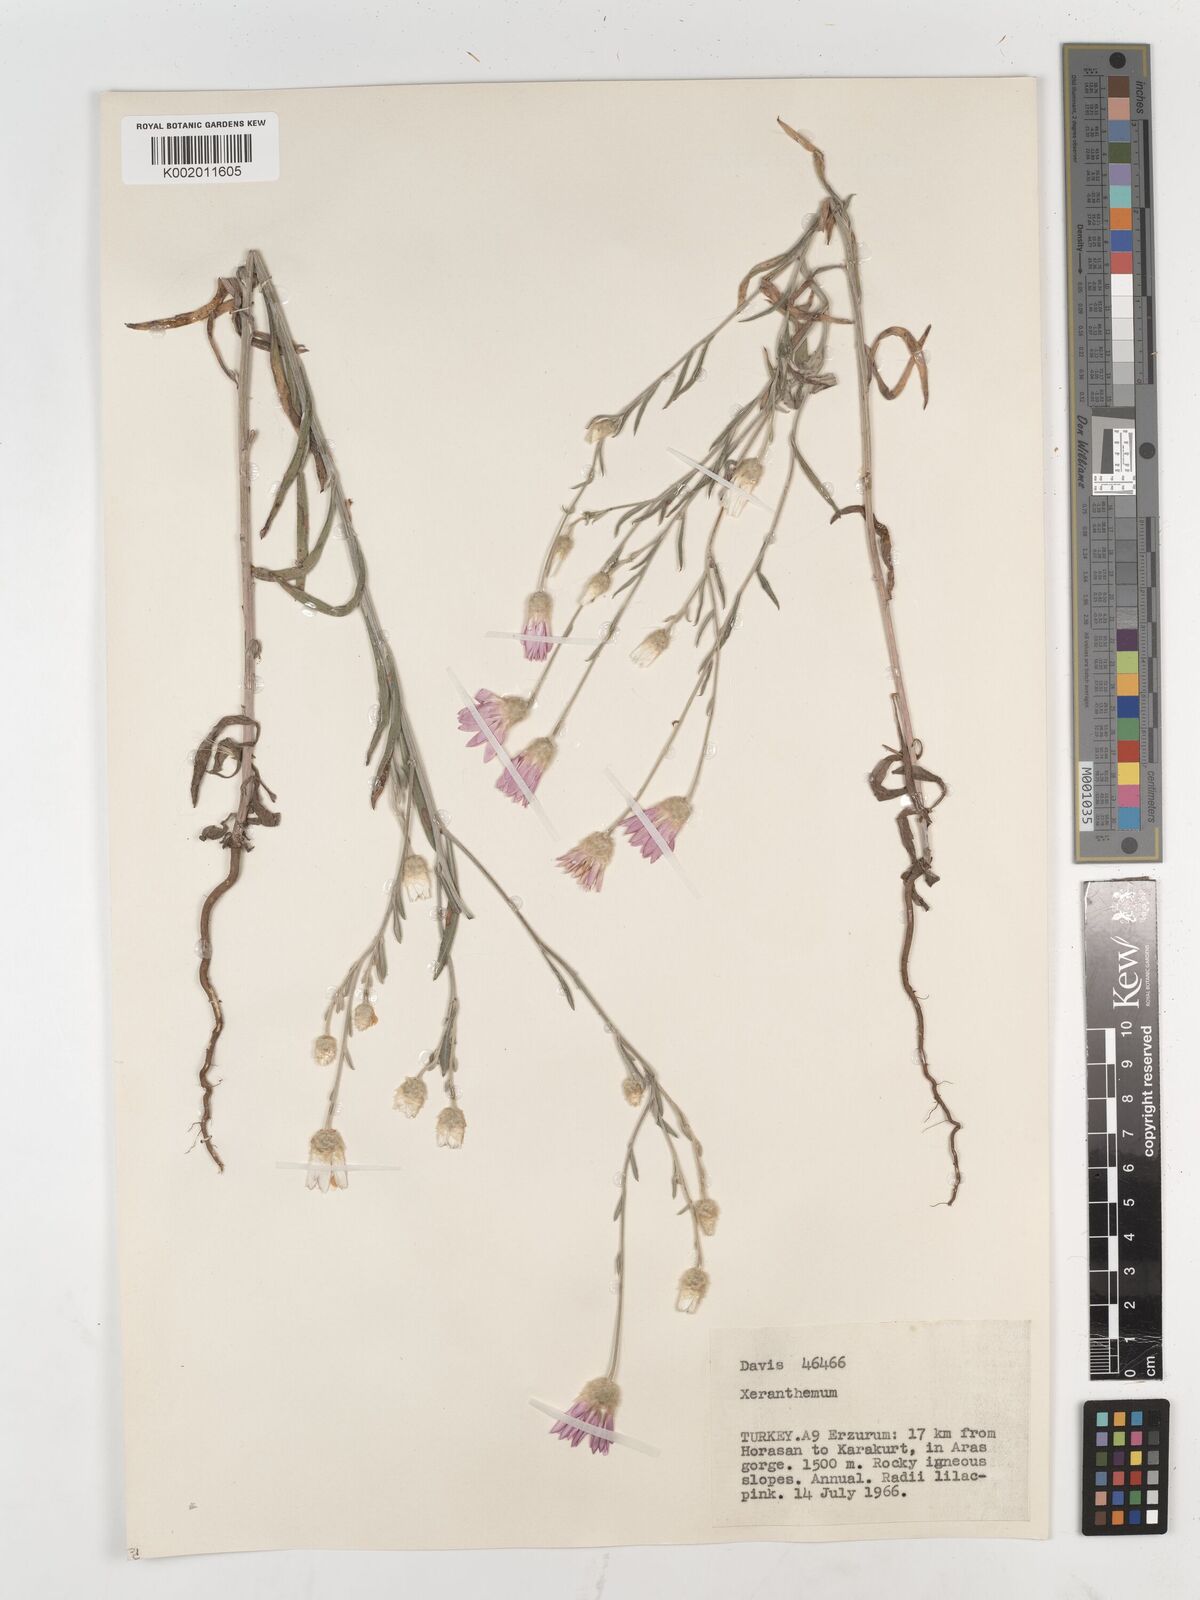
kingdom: Plantae
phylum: Tracheophyta
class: Magnoliopsida
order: Asterales
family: Asteraceae
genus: Xeranthemum
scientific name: Xeranthemum annuum
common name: Immortelle
